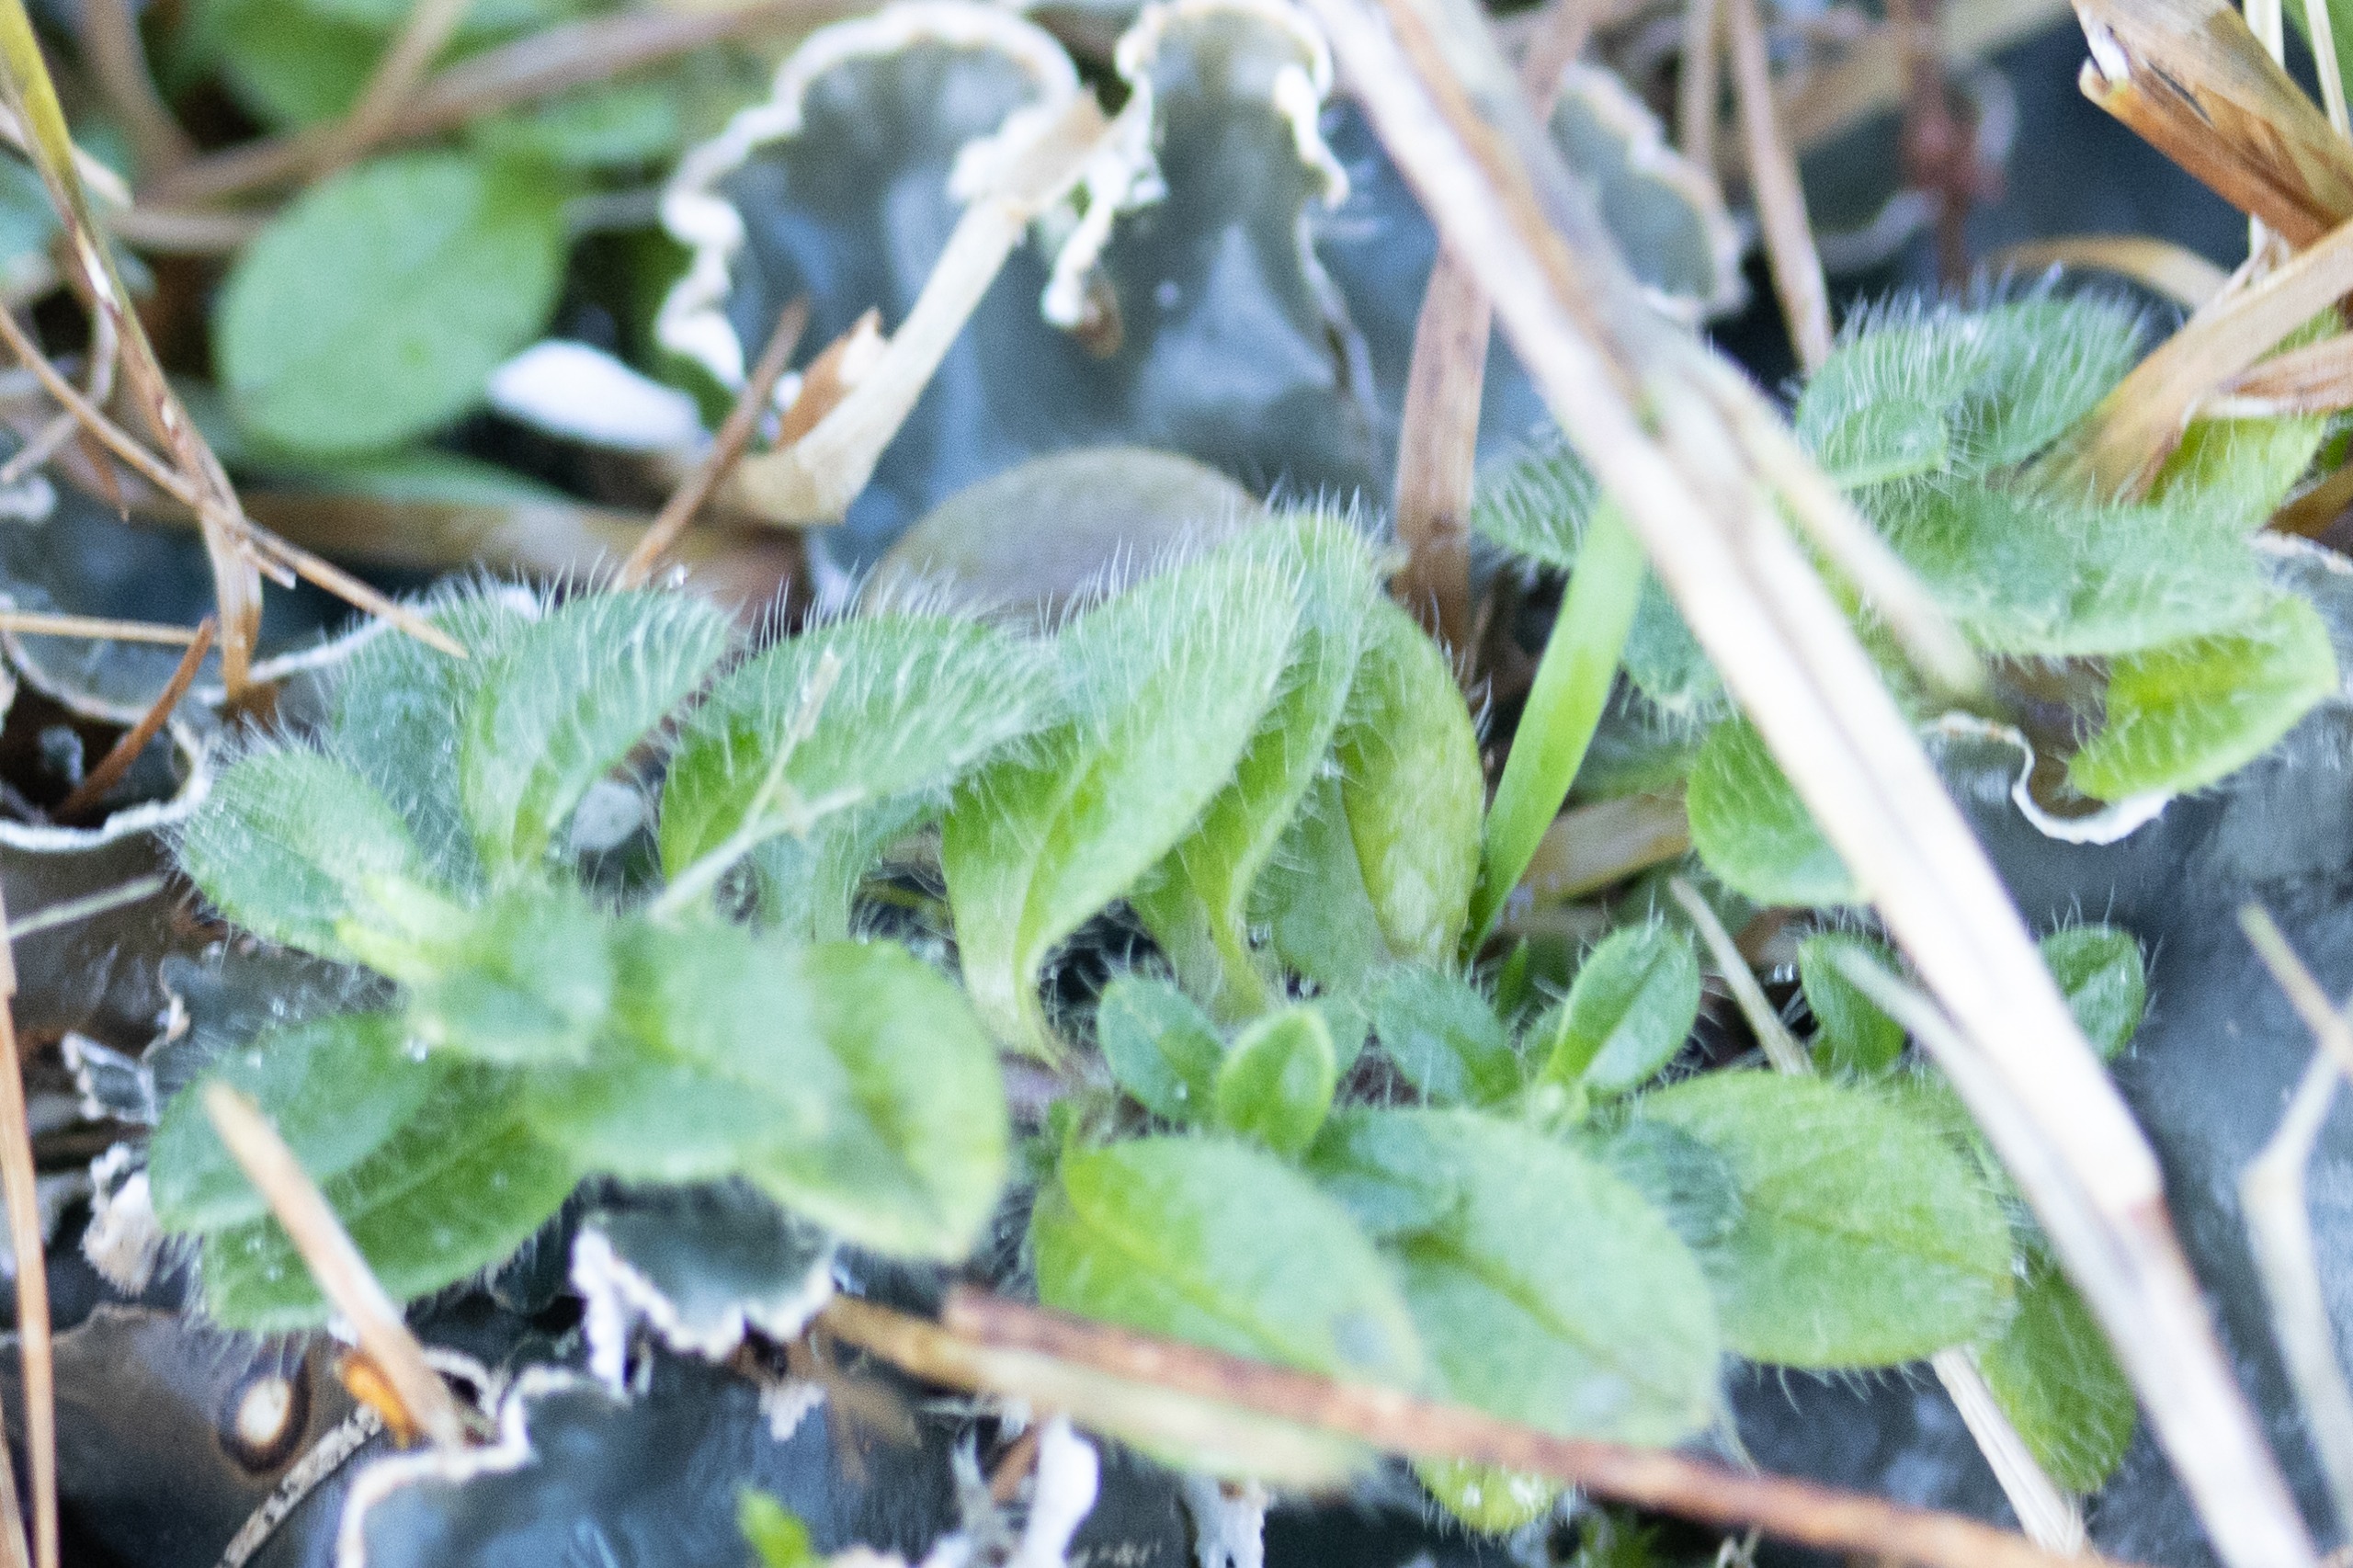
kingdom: Plantae
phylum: Tracheophyta
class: Magnoliopsida
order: Caryophyllales
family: Caryophyllaceae
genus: Cerastium
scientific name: Cerastium fontanum
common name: Almindelig hønsetarm
